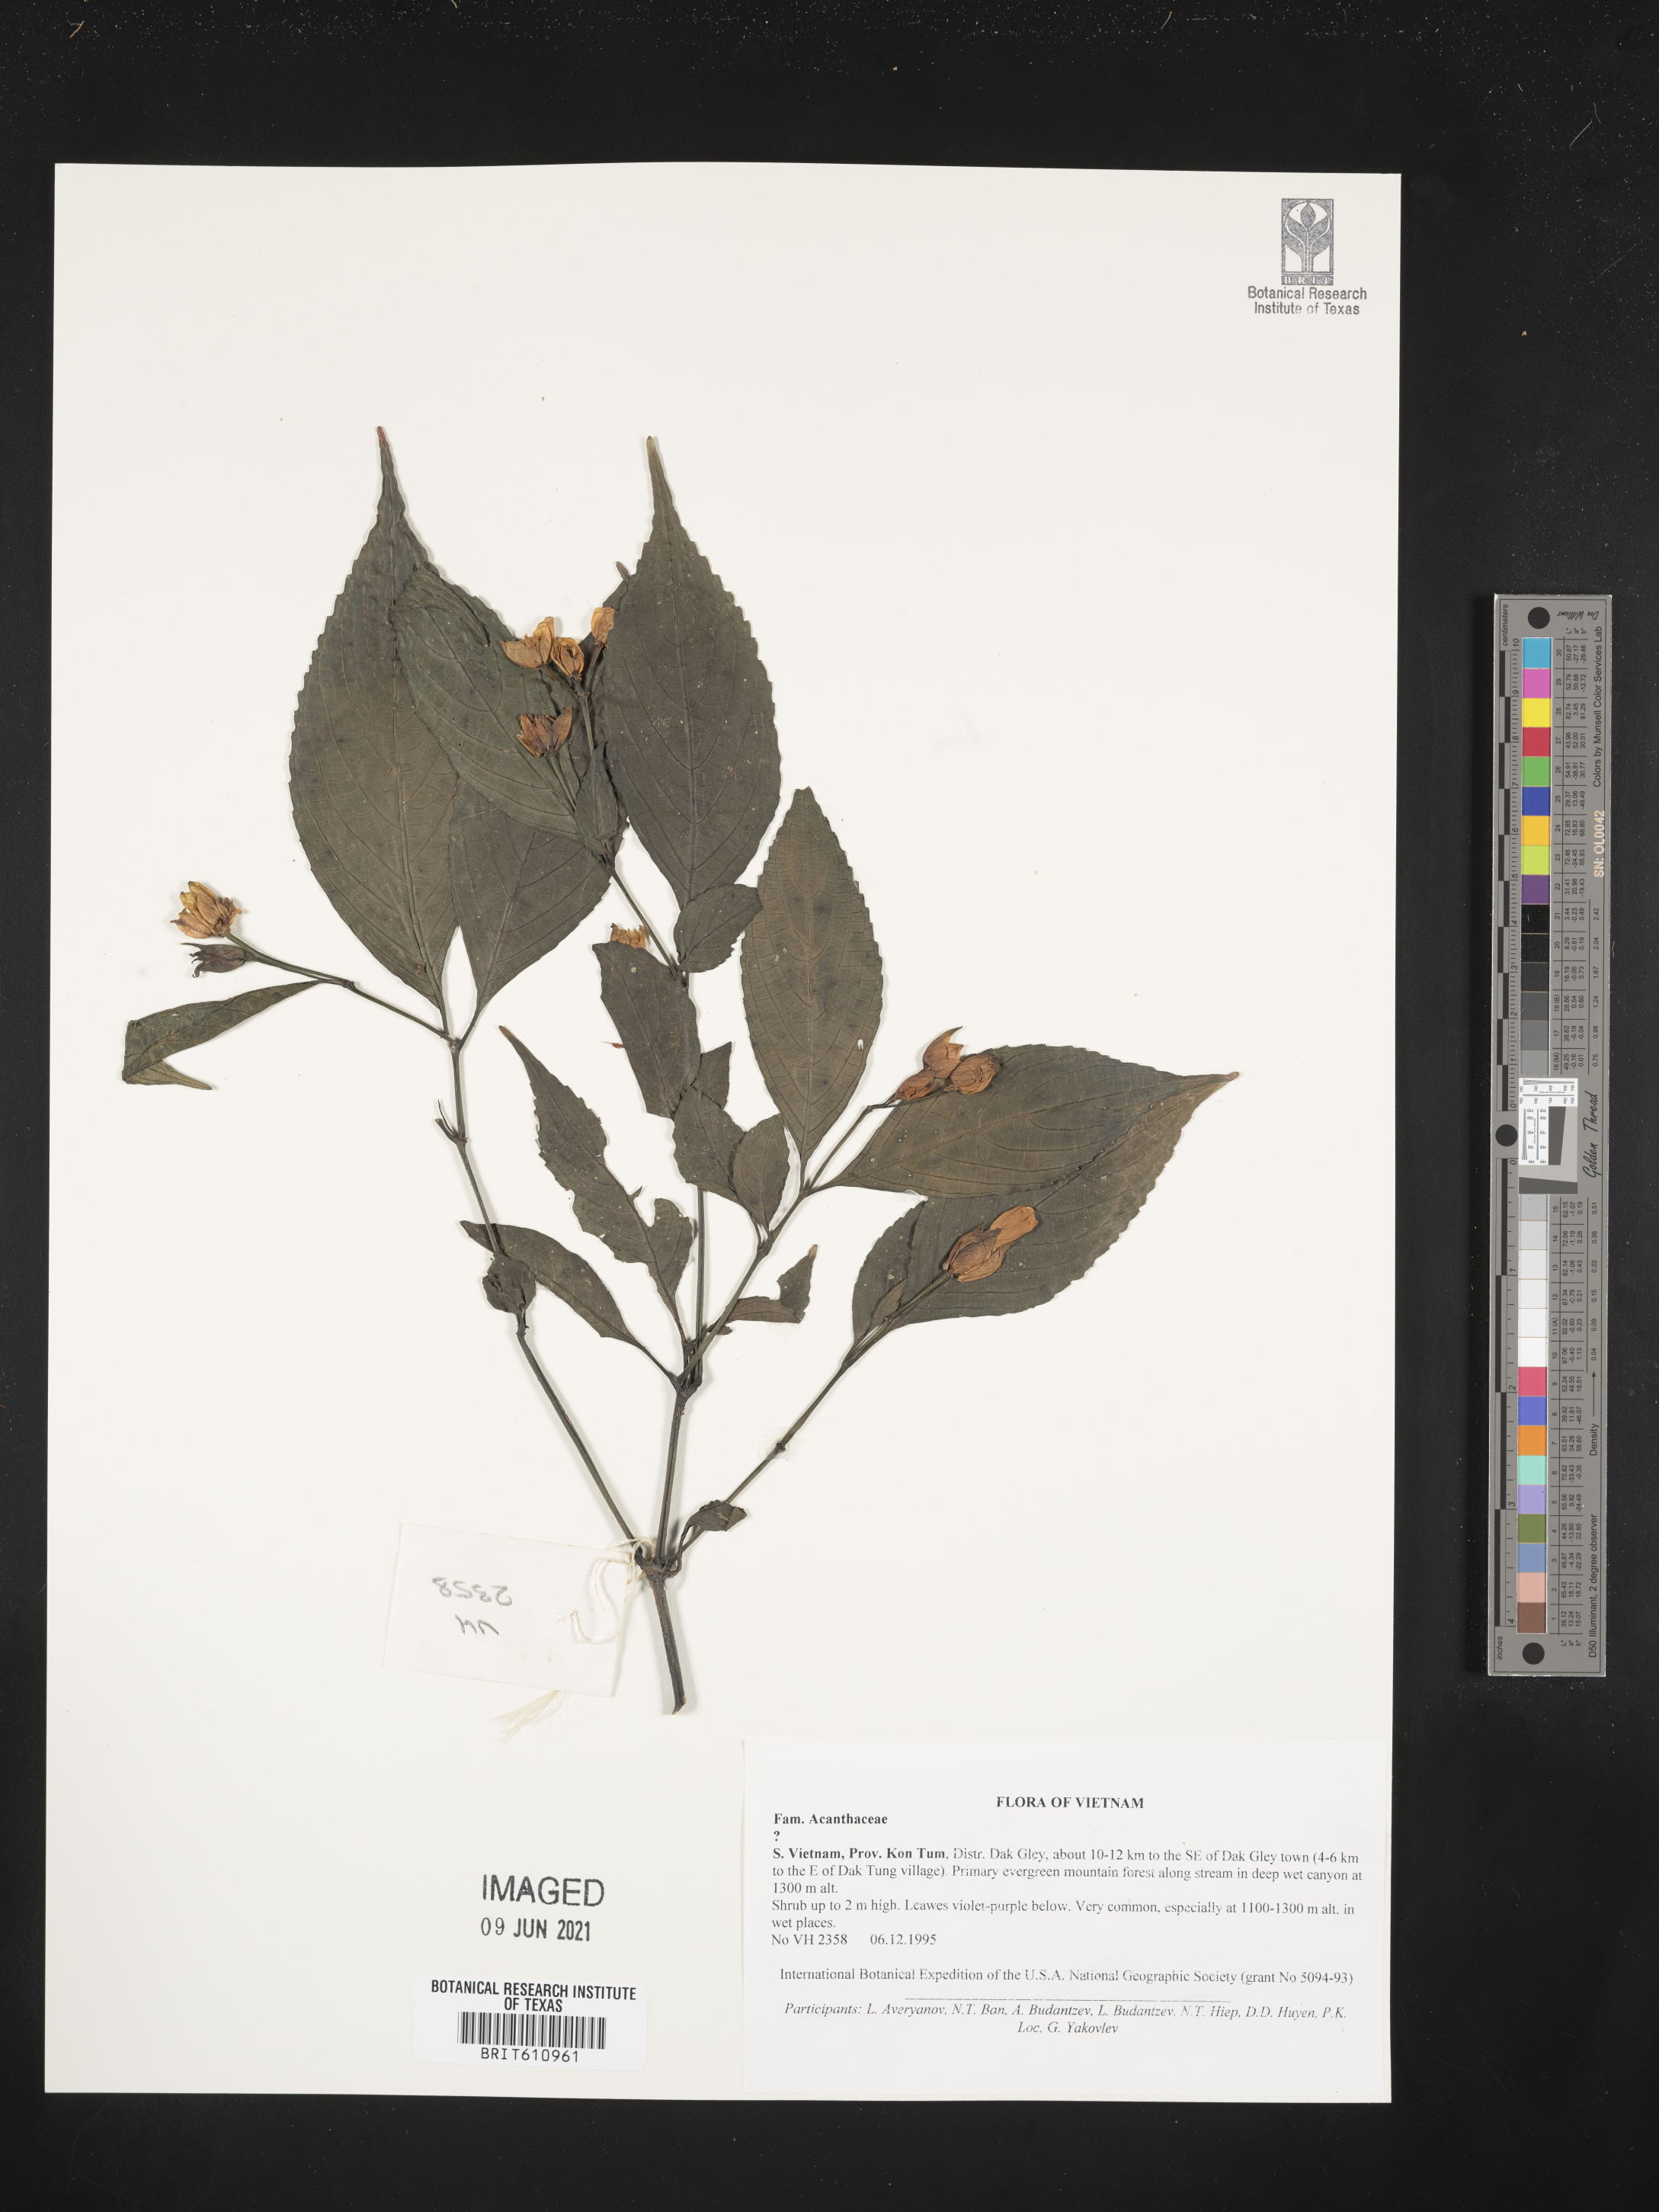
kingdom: Plantae
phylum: Tracheophyta
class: Magnoliopsida
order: Lamiales
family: Acanthaceae
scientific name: Acanthaceae
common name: Acanthaceae
